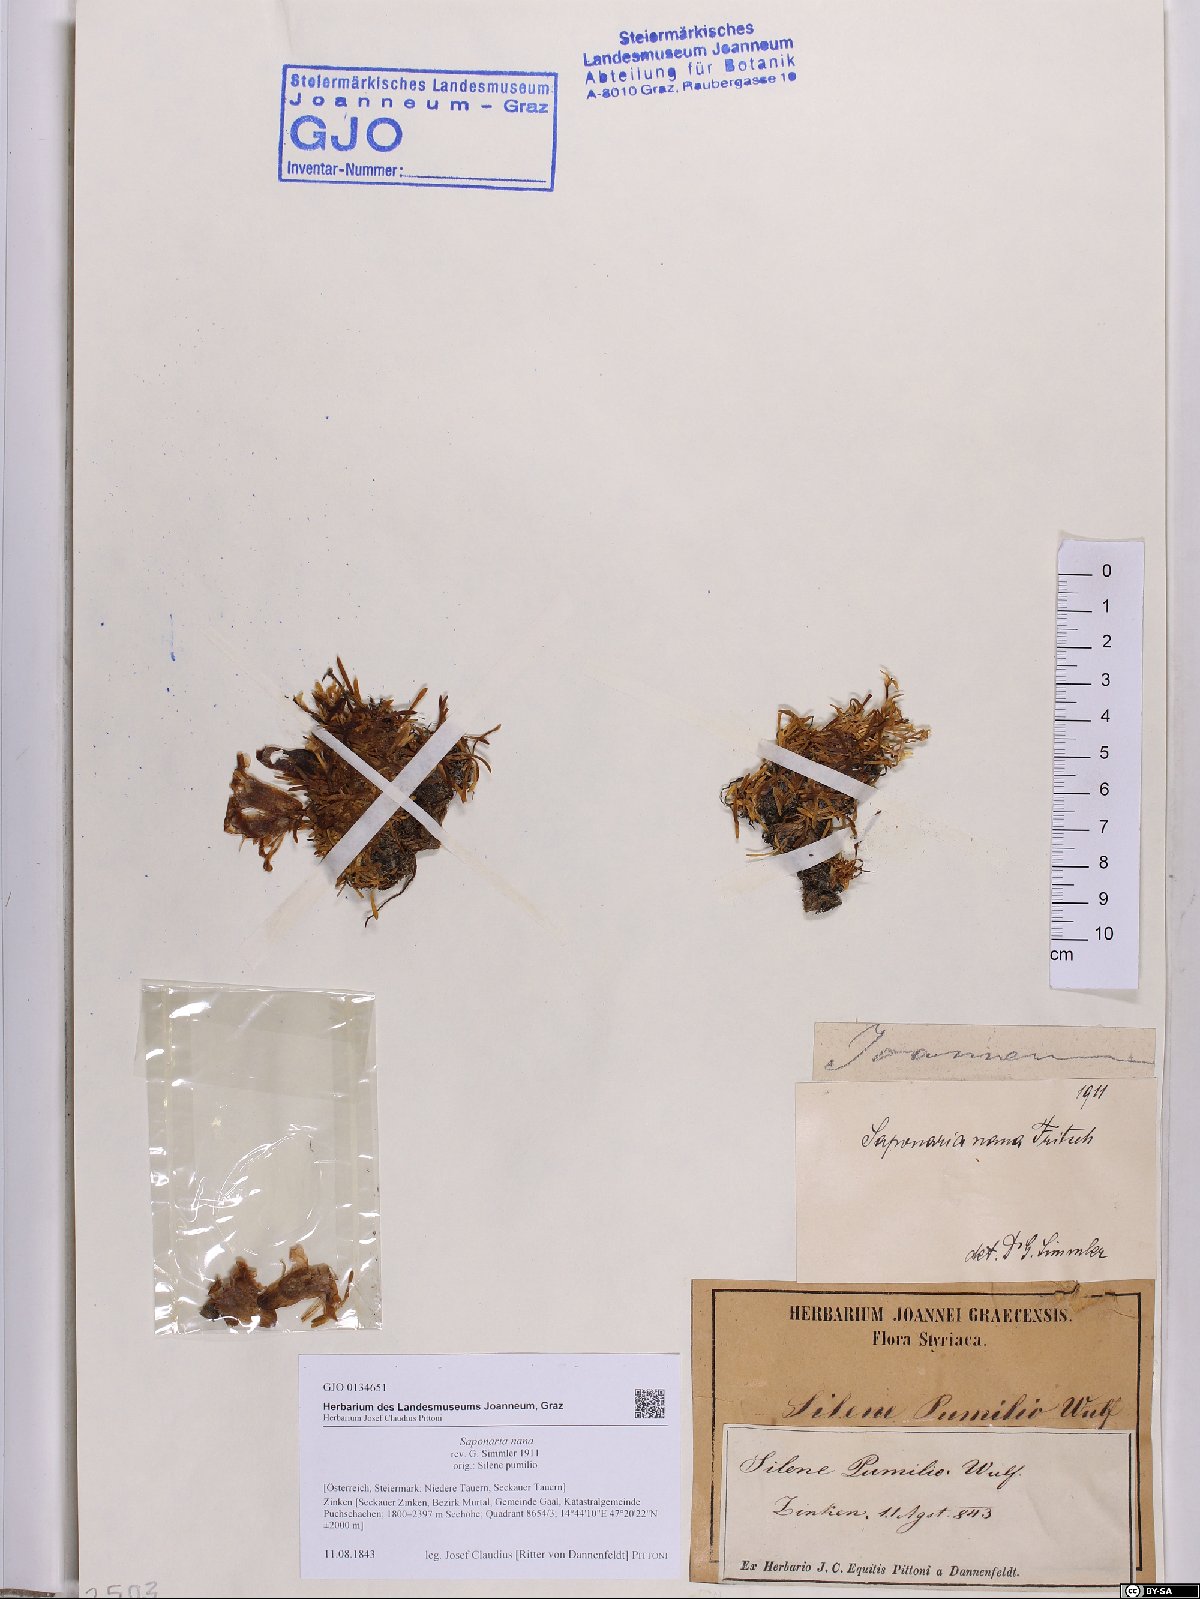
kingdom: Plantae
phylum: Tracheophyta
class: Magnoliopsida
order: Caryophyllales
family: Caryophyllaceae
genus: Saponaria
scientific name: Saponaria pumila
